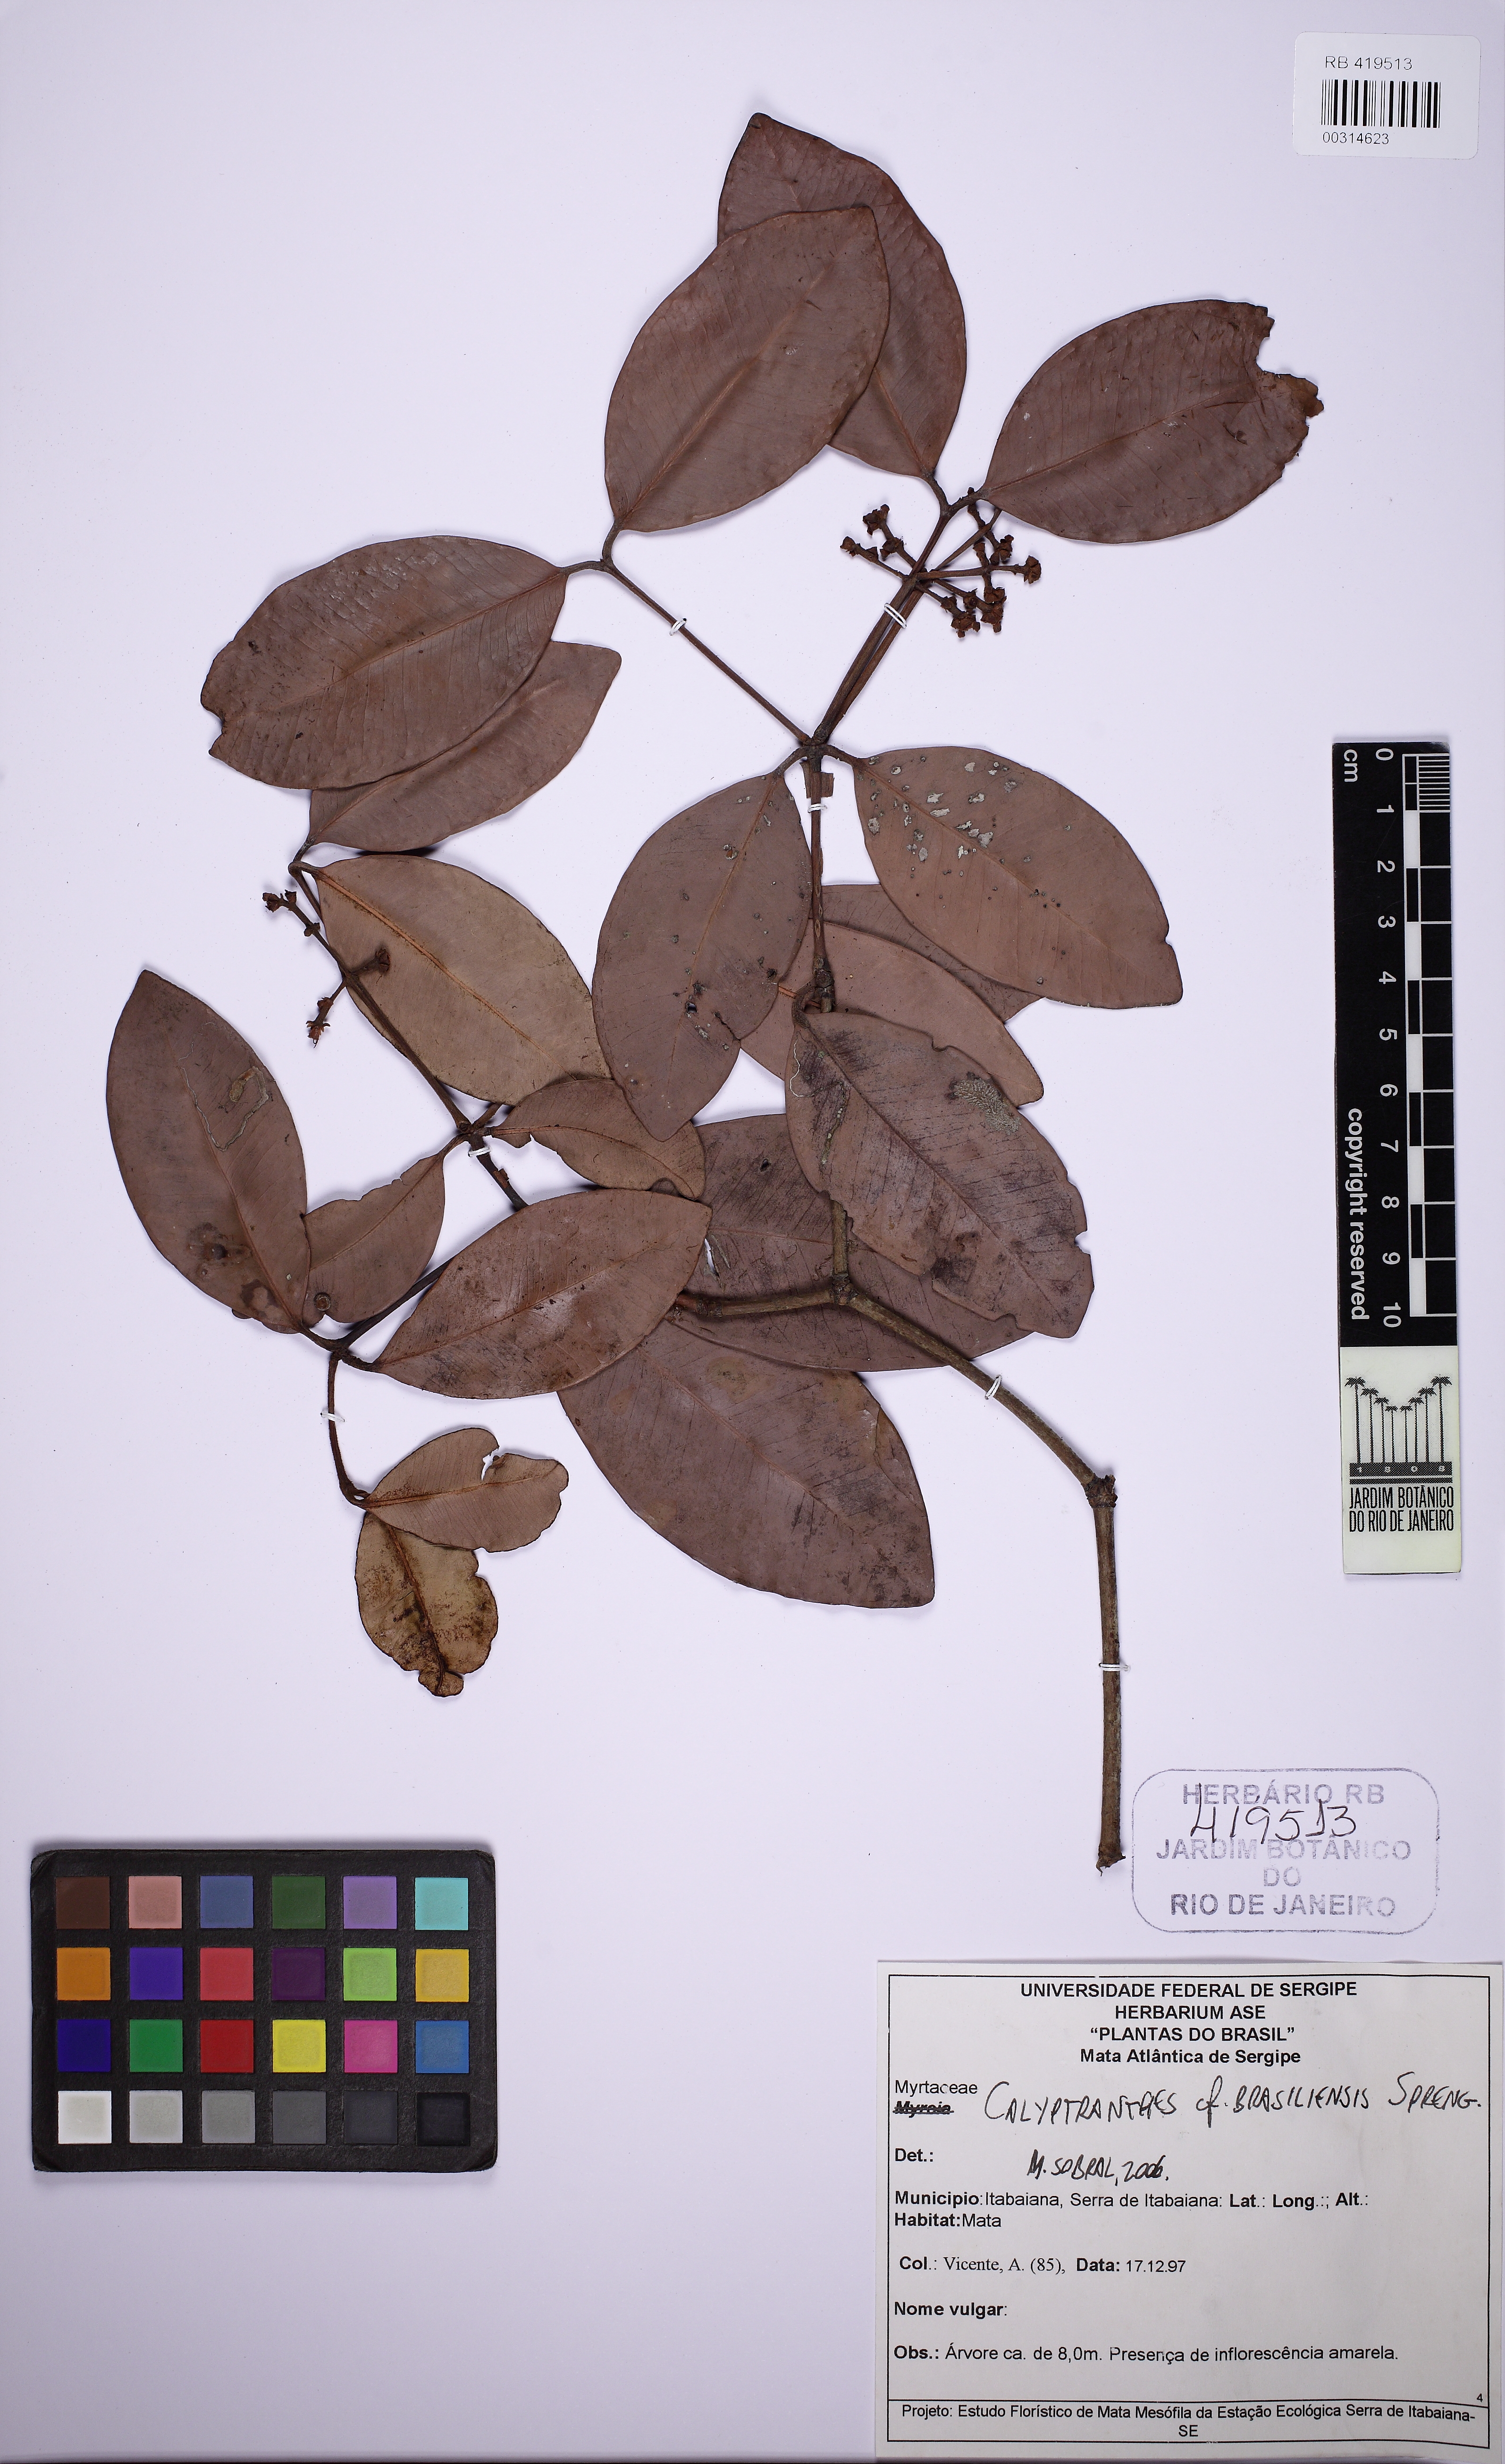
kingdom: Plantae
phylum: Tracheophyta
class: Magnoliopsida
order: Myrtales
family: Myrtaceae
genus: Myrcia
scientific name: Myrcia neobrasiliensis
